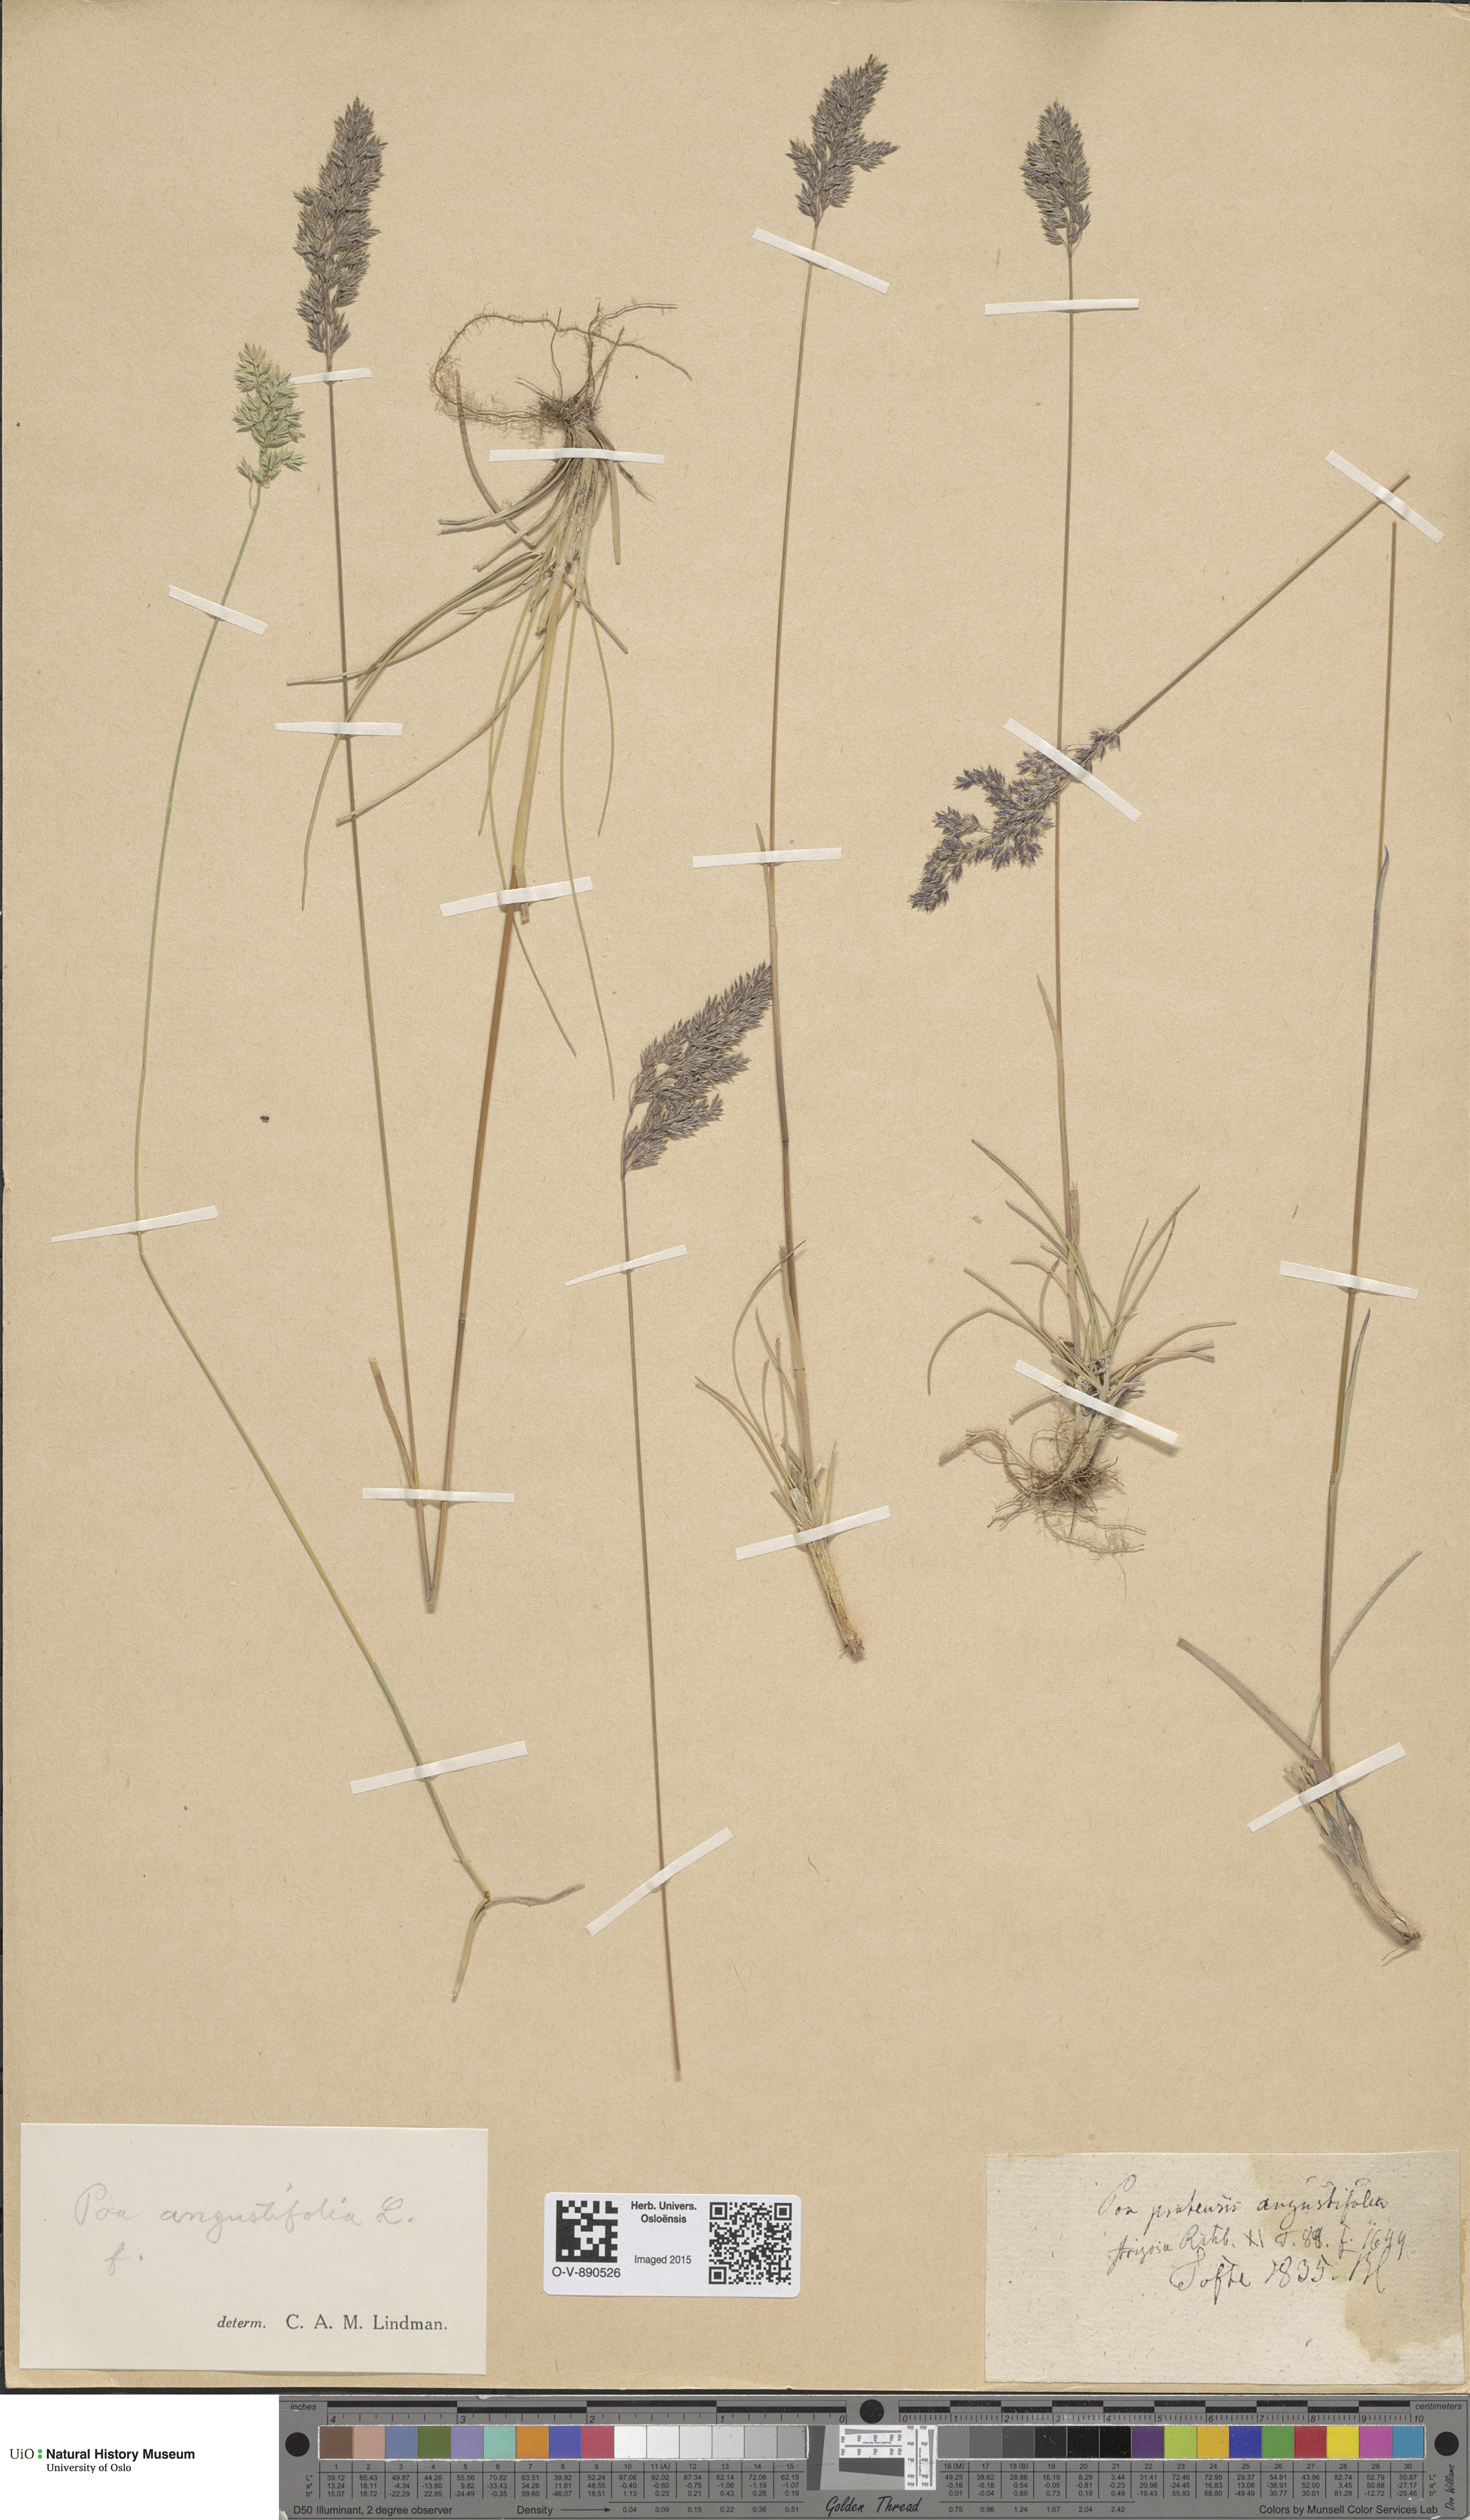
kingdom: Plantae
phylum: Tracheophyta
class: Liliopsida
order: Poales
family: Poaceae
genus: Poa
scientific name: Poa angustifolia
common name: Narrow-leaved meadow-grass
